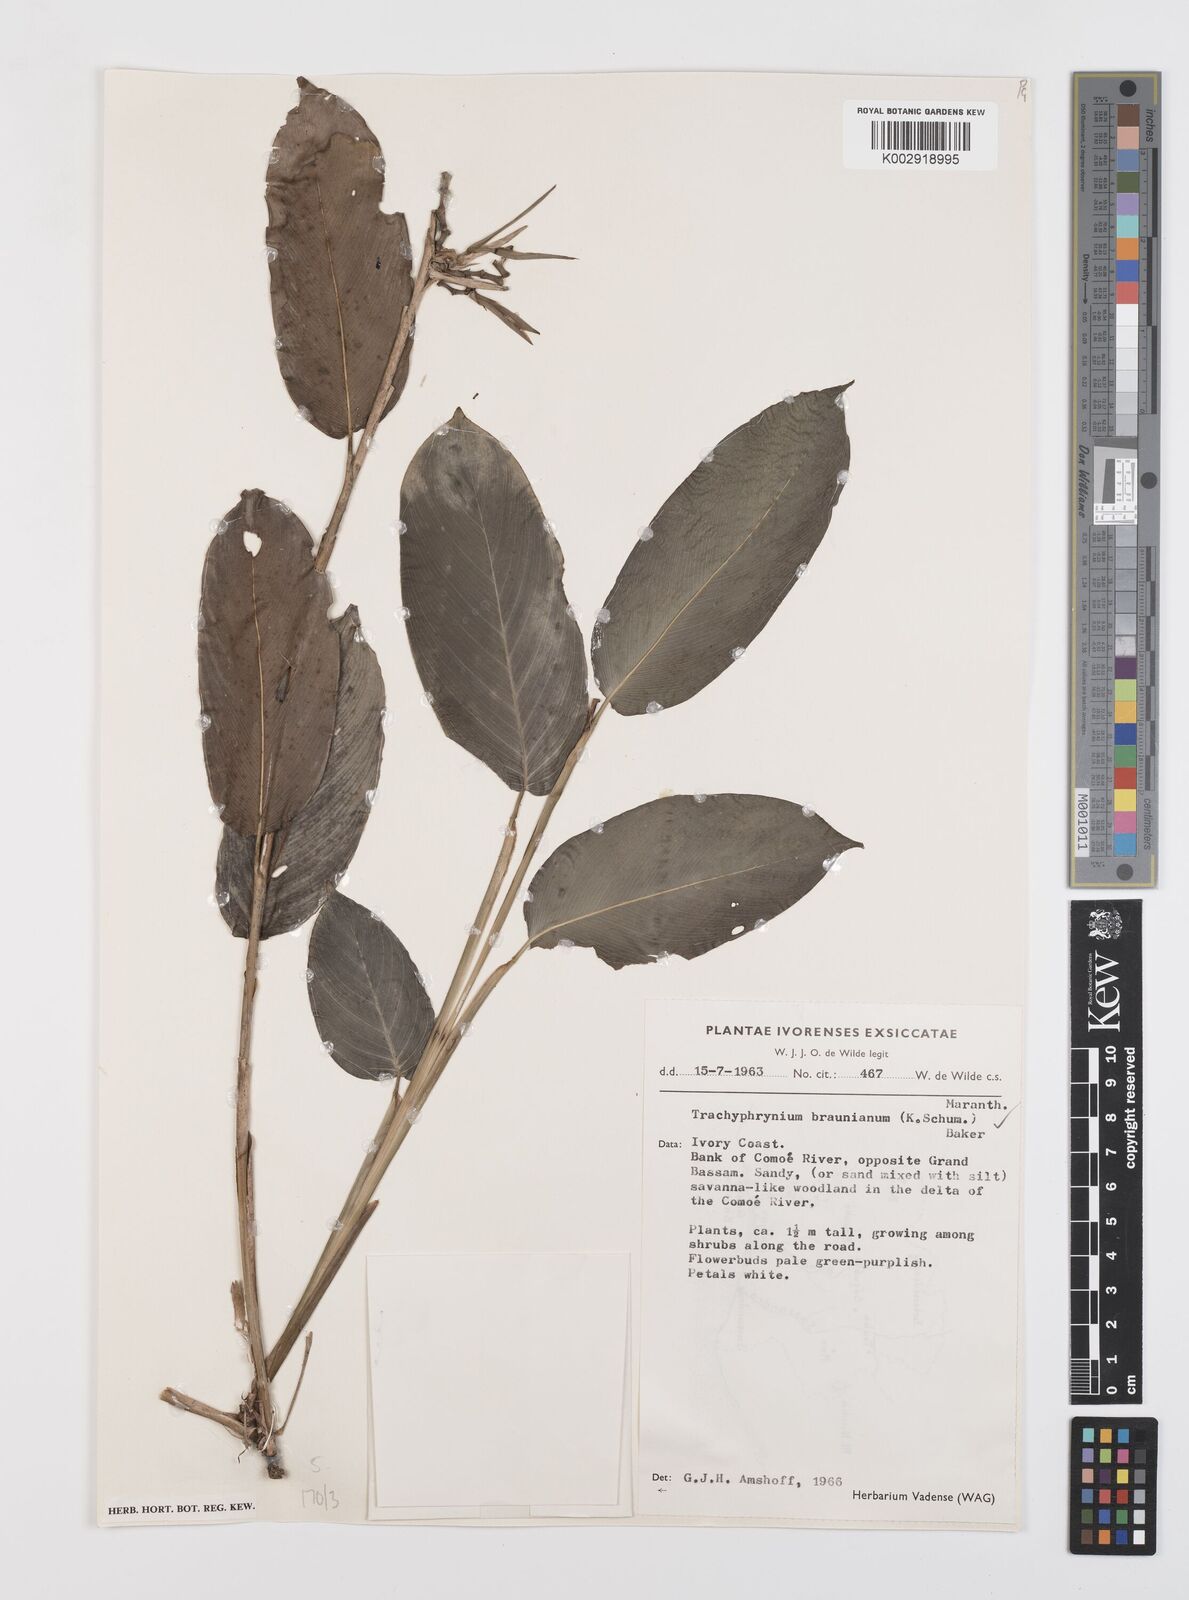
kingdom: Plantae
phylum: Tracheophyta
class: Liliopsida
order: Zingiberales
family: Marantaceae
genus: Trachyphrynium
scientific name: Trachyphrynium braunianum
